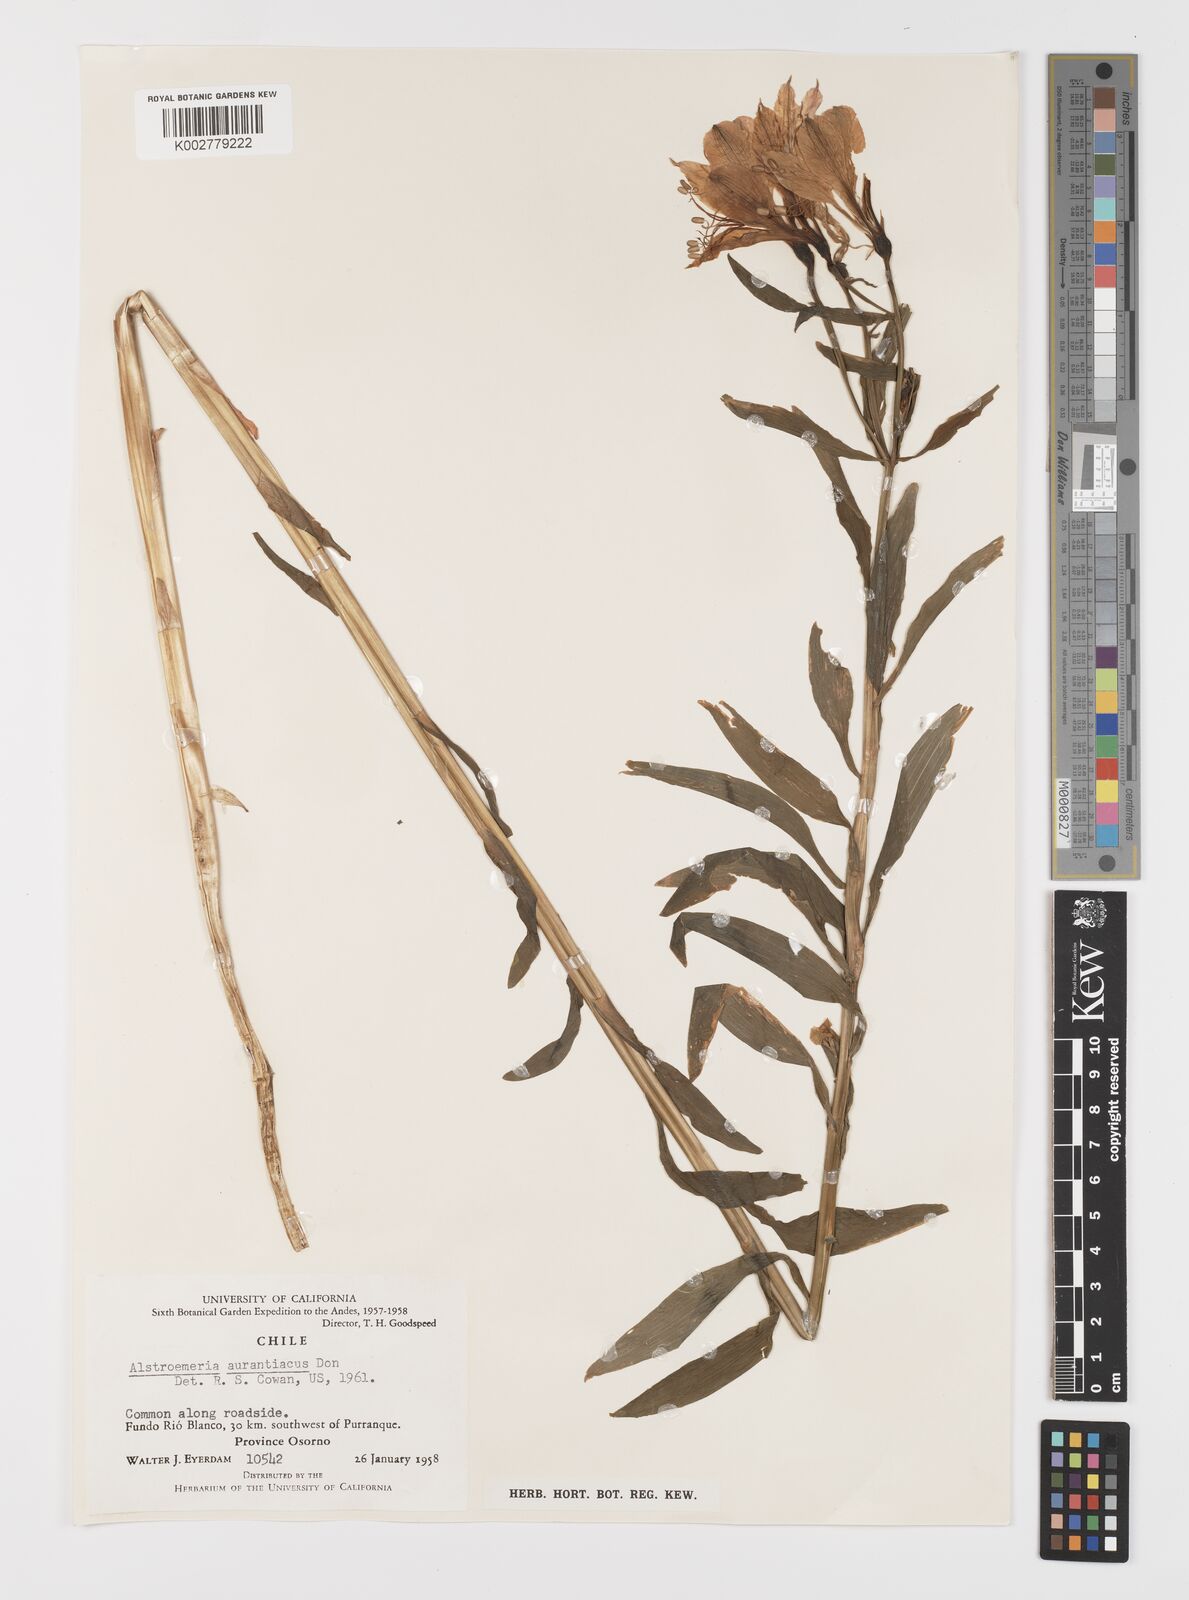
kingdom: Plantae
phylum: Tracheophyta
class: Liliopsida
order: Liliales
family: Alstroemeriaceae
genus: Alstroemeria
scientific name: Alstroemeria aurea
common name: Peruvian lily
